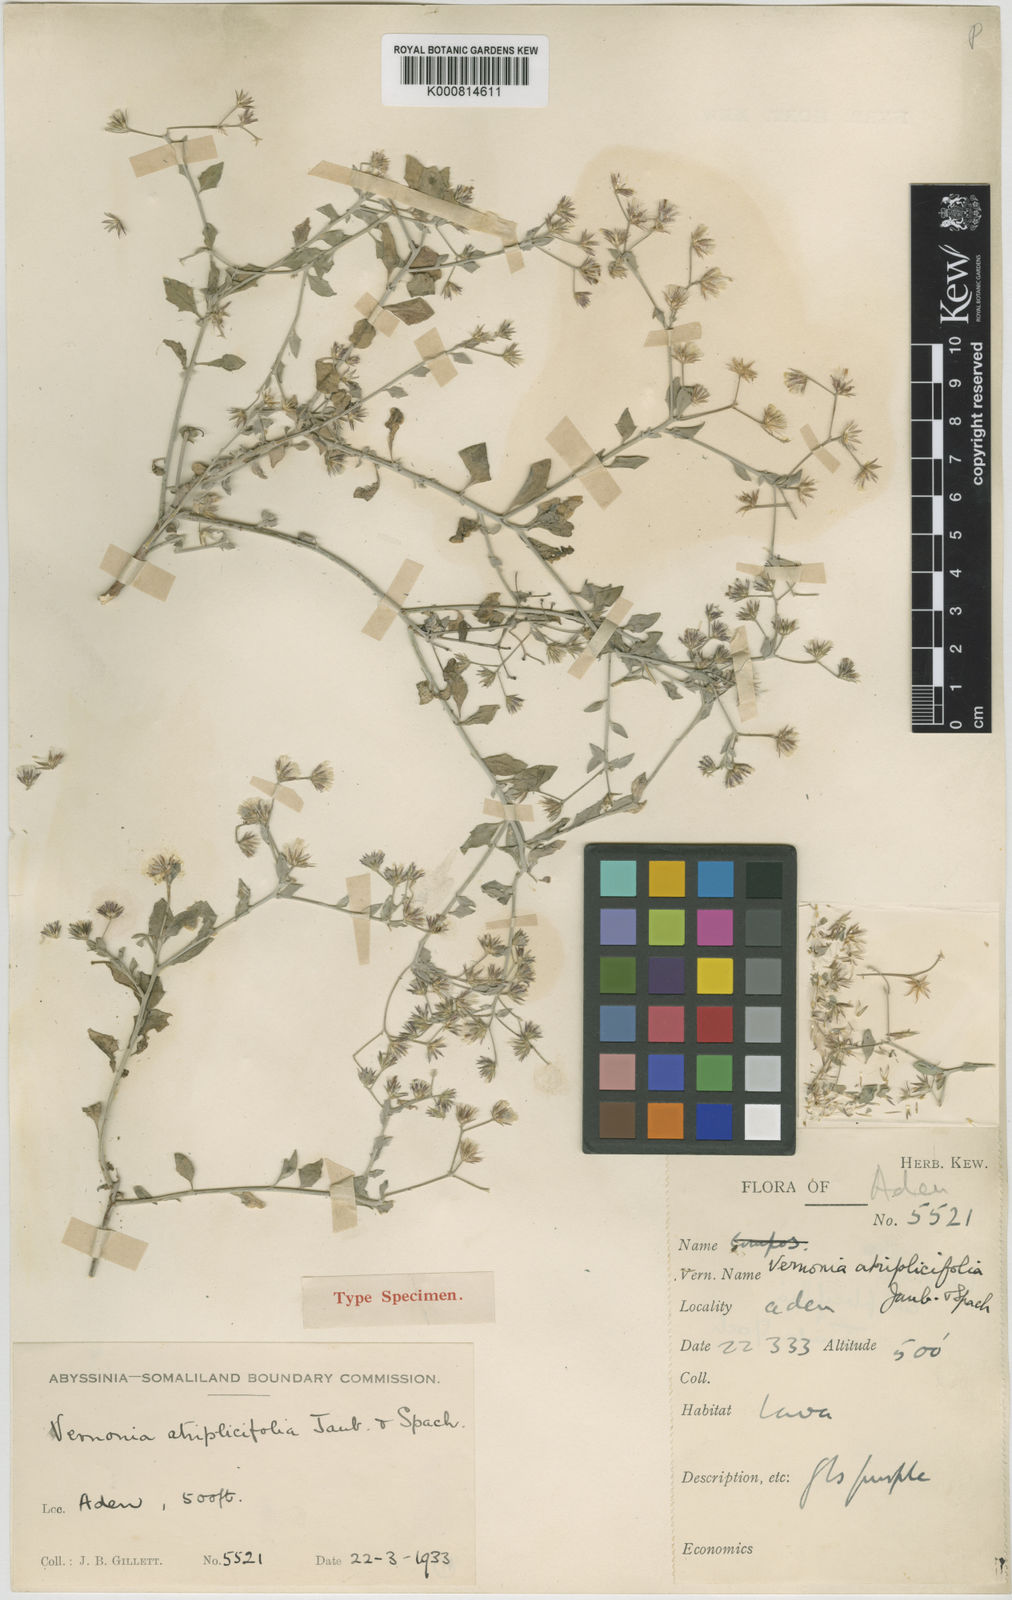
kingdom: Plantae
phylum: Tracheophyta
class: Magnoliopsida
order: Asterales
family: Asteraceae
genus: Vernonia
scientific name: Vernonia arabica
